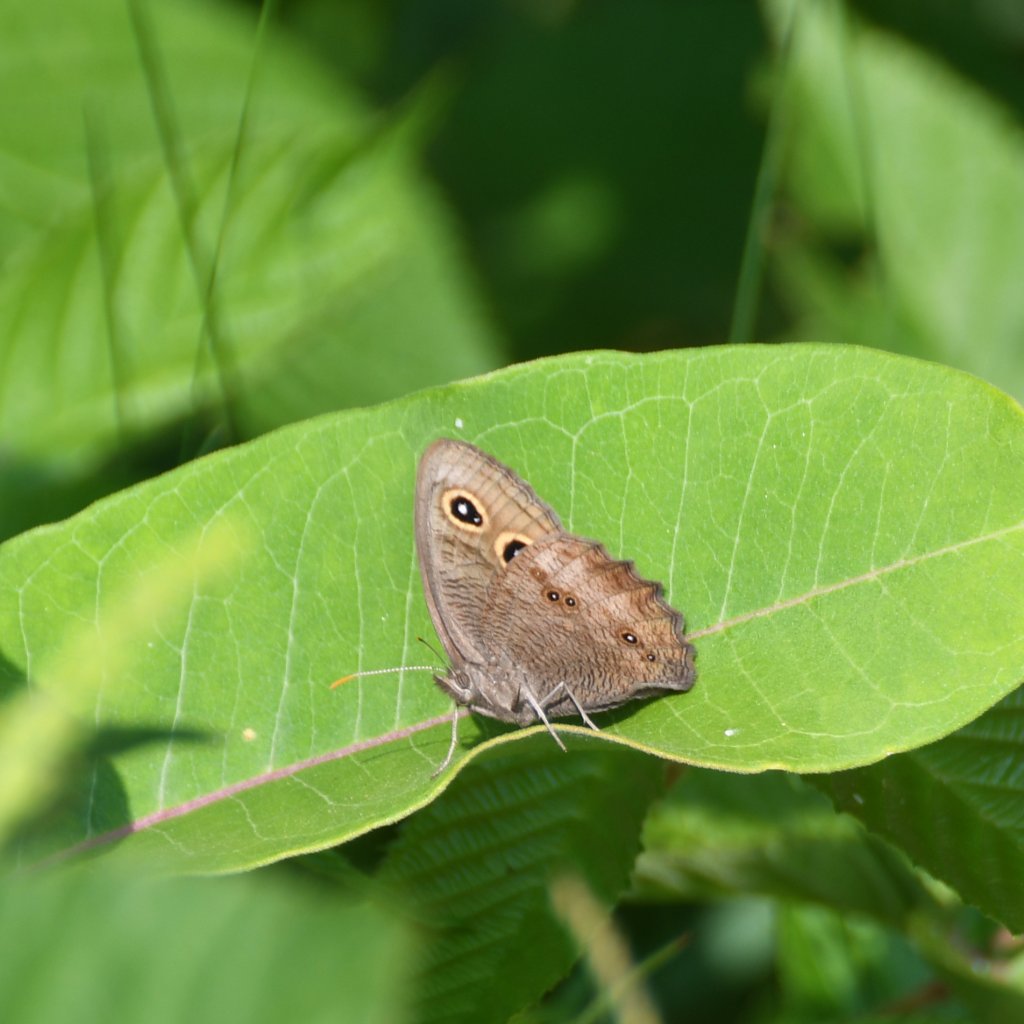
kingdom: Animalia
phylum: Arthropoda
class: Insecta
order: Lepidoptera
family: Nymphalidae
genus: Cercyonis
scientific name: Cercyonis pegala
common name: Common Wood-Nymph
